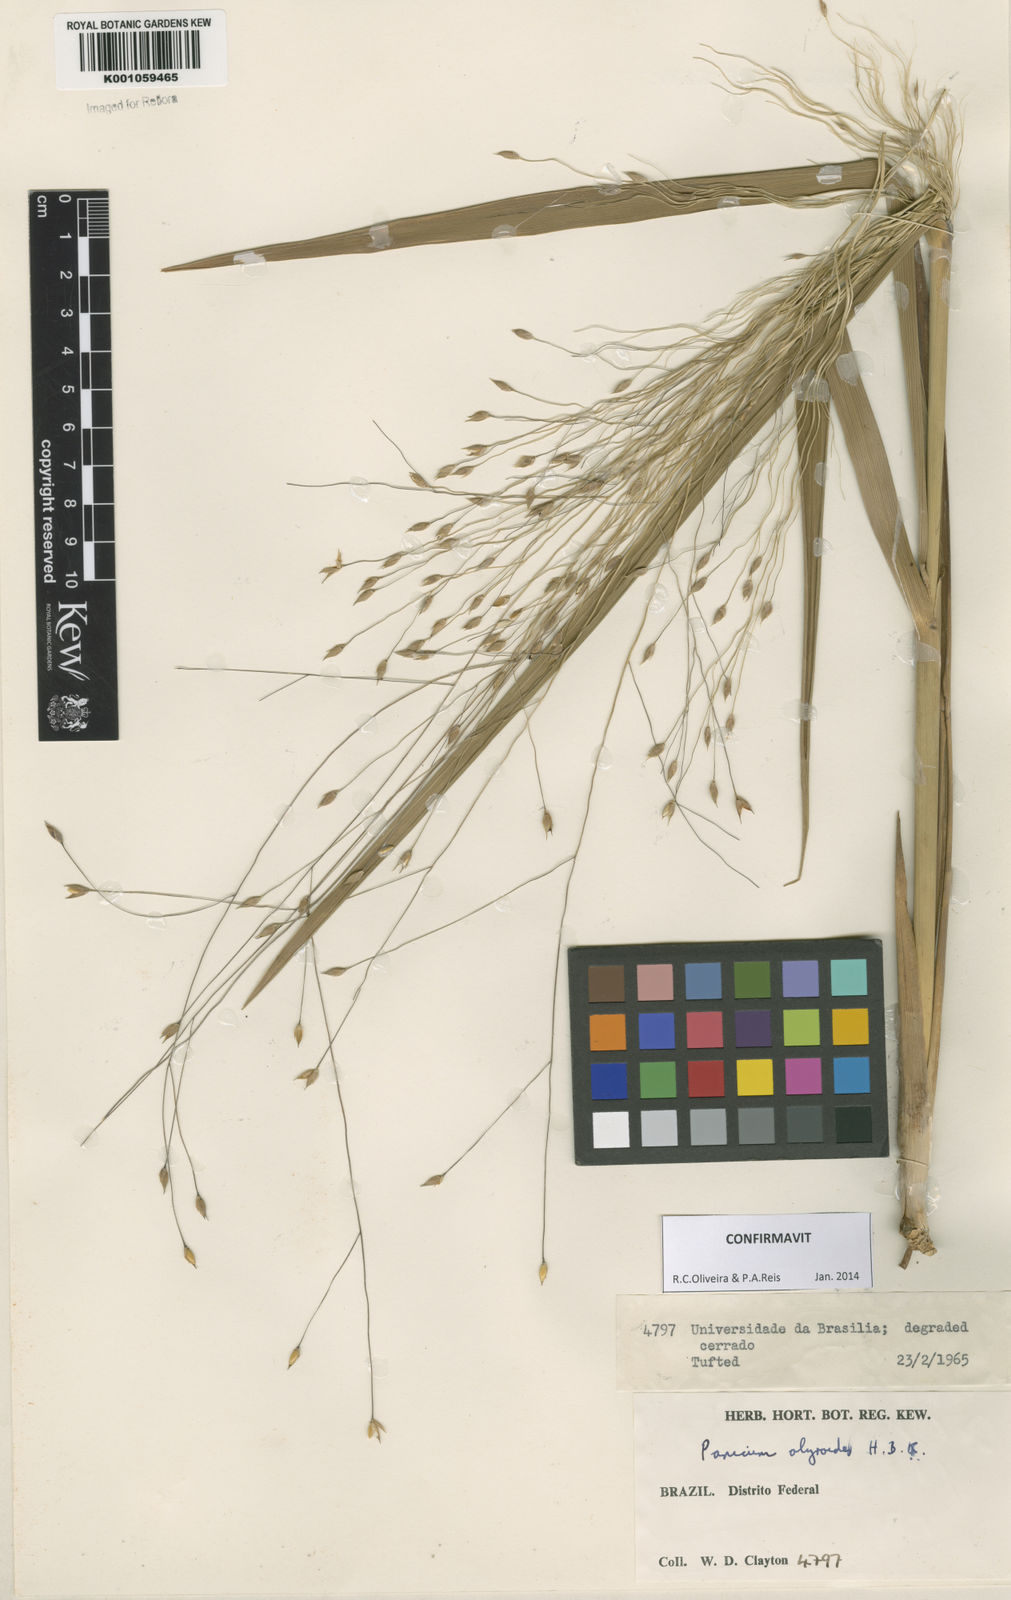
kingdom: Plantae
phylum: Tracheophyta
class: Liliopsida
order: Poales
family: Poaceae
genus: Panicum
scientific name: Panicum olyroides
